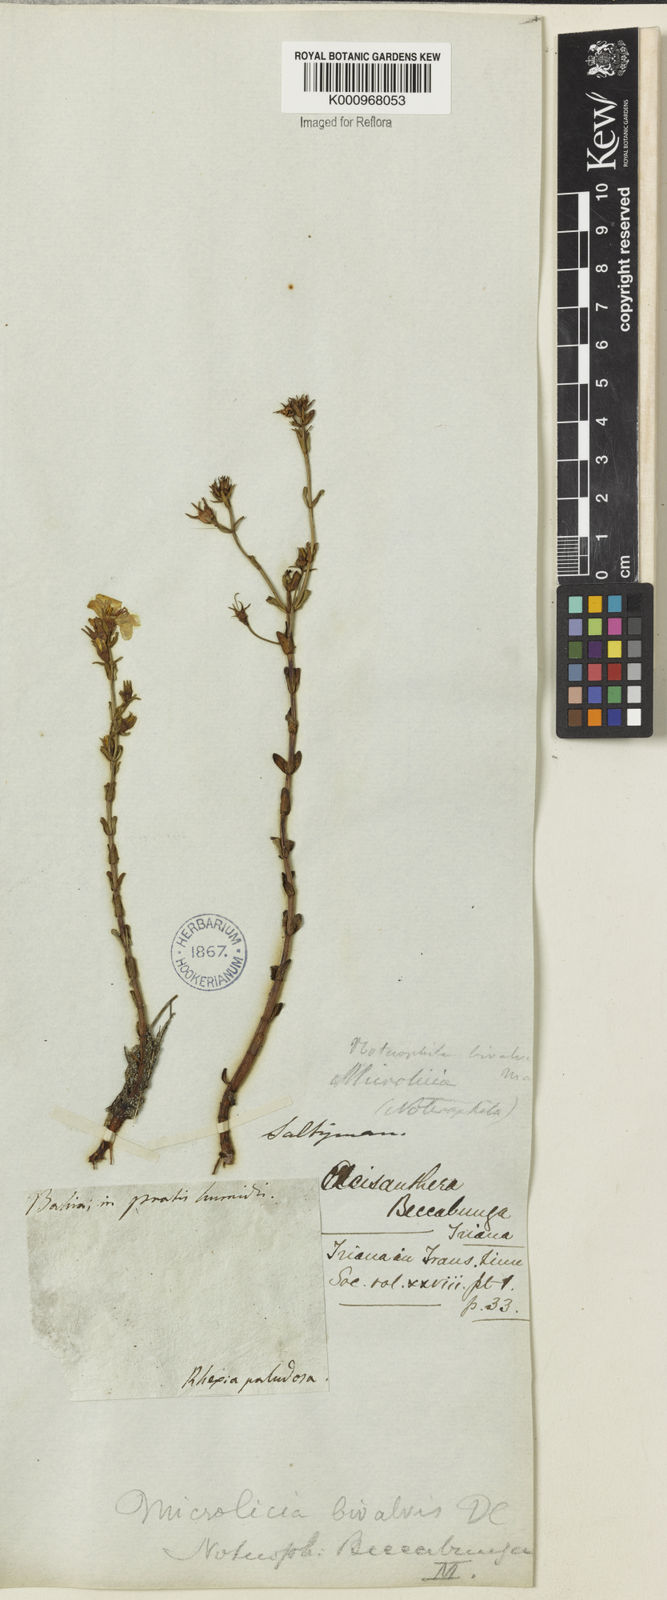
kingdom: Plantae
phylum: Tracheophyta
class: Magnoliopsida
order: Myrtales
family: Melastomataceae
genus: Noterophila
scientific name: Noterophila bivalvis
